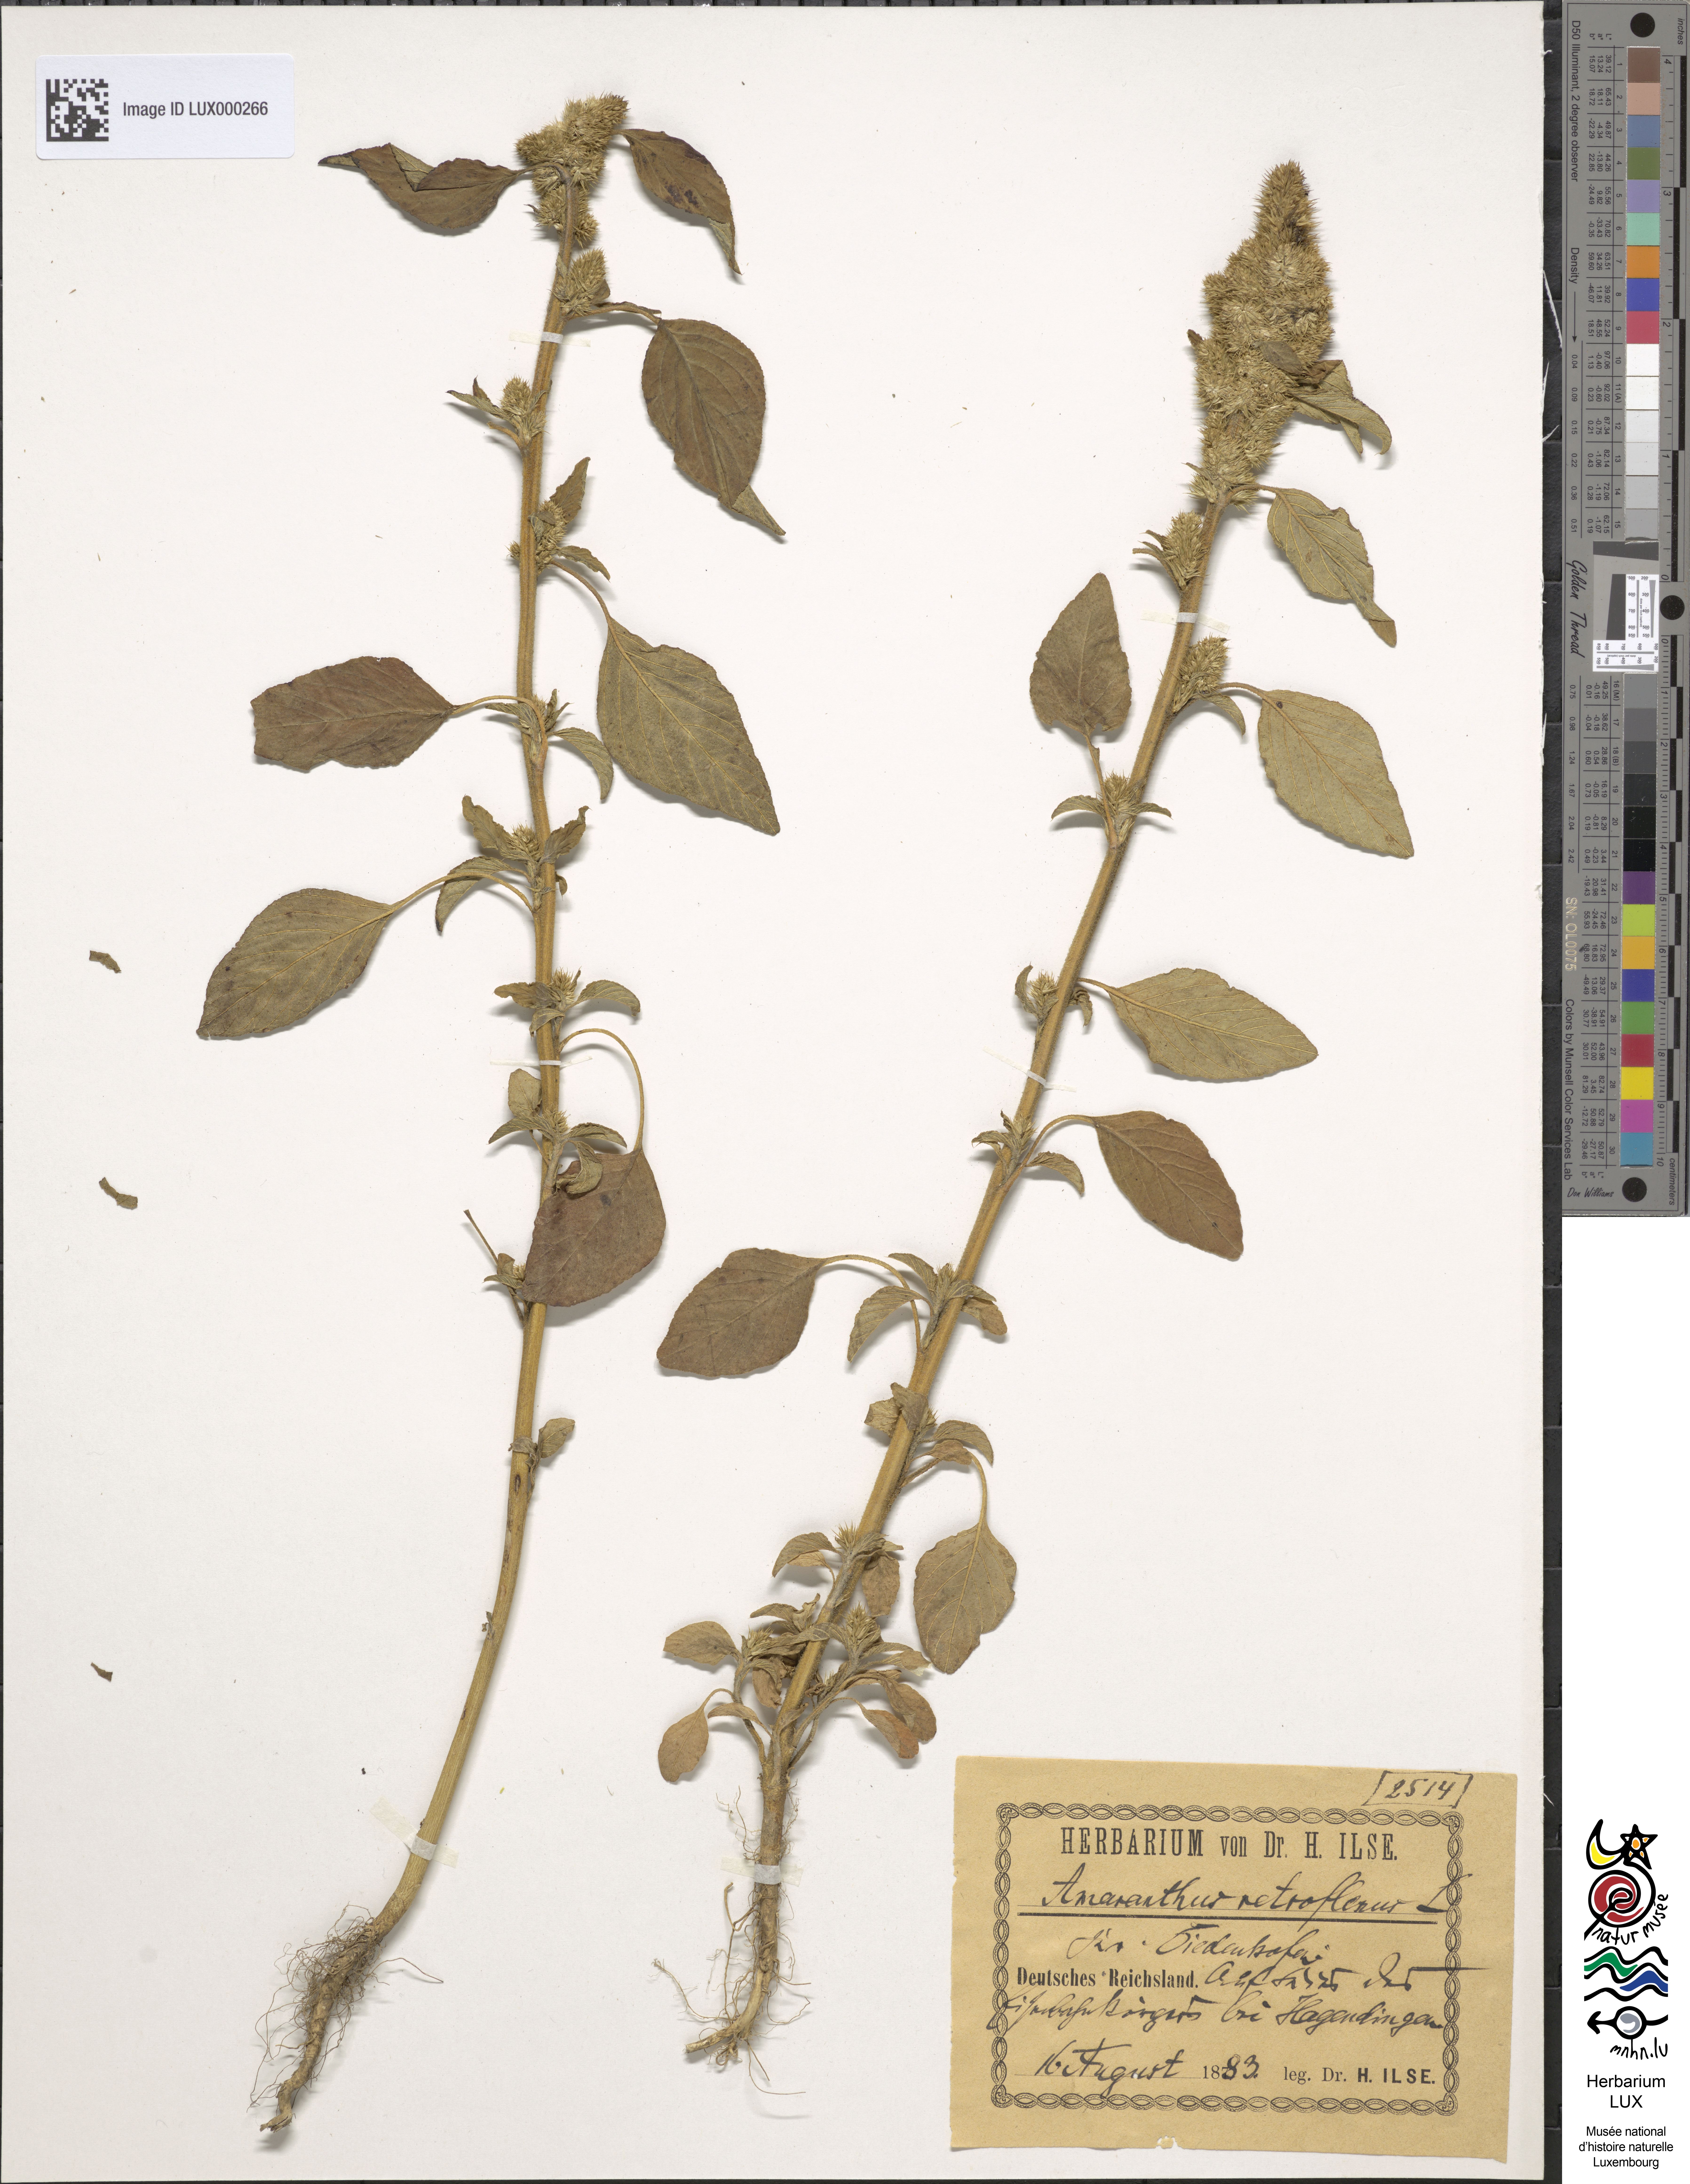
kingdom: Plantae
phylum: Tracheophyta
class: Magnoliopsida
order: Caryophyllales
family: Amaranthaceae
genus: Amaranthus
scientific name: Amaranthus retroflexus
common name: Redroot amaranth
